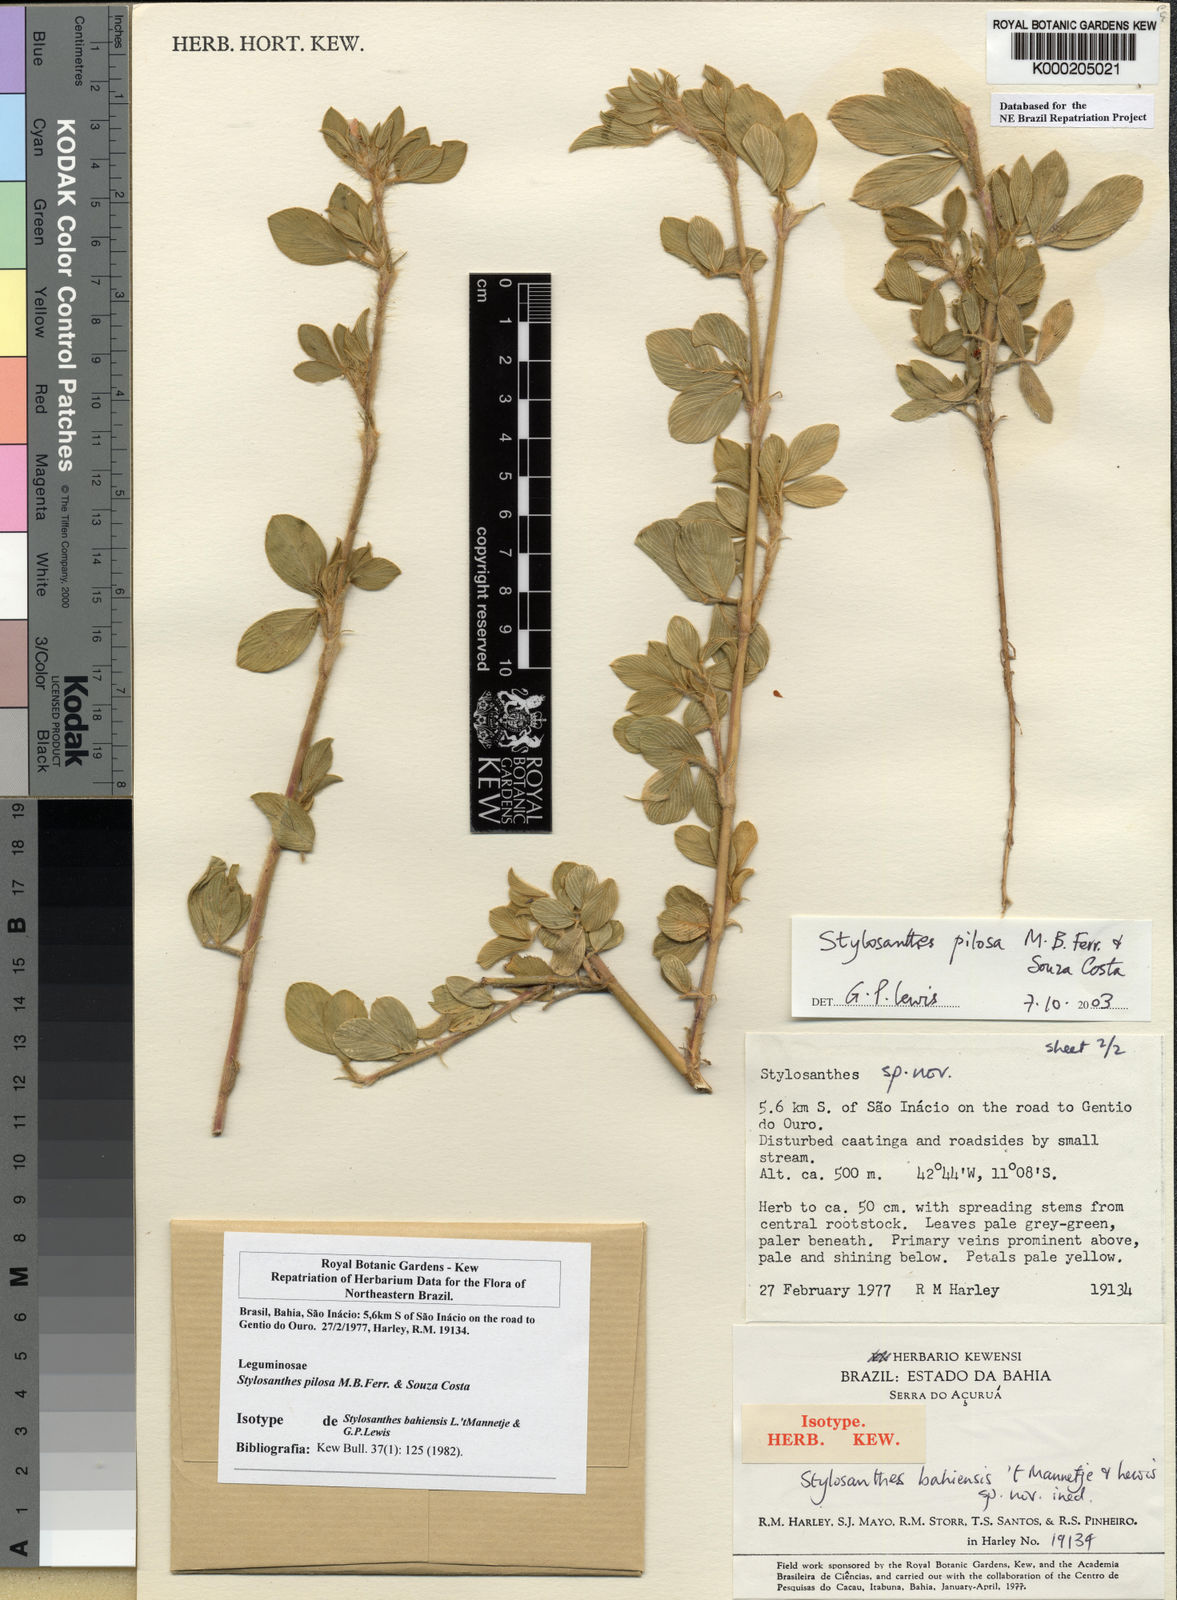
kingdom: Plantae
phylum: Tracheophyta
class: Magnoliopsida
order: Fabales
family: Fabaceae
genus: Stylosanthes
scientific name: Stylosanthes viscosa
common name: Viscid pencil-flower
